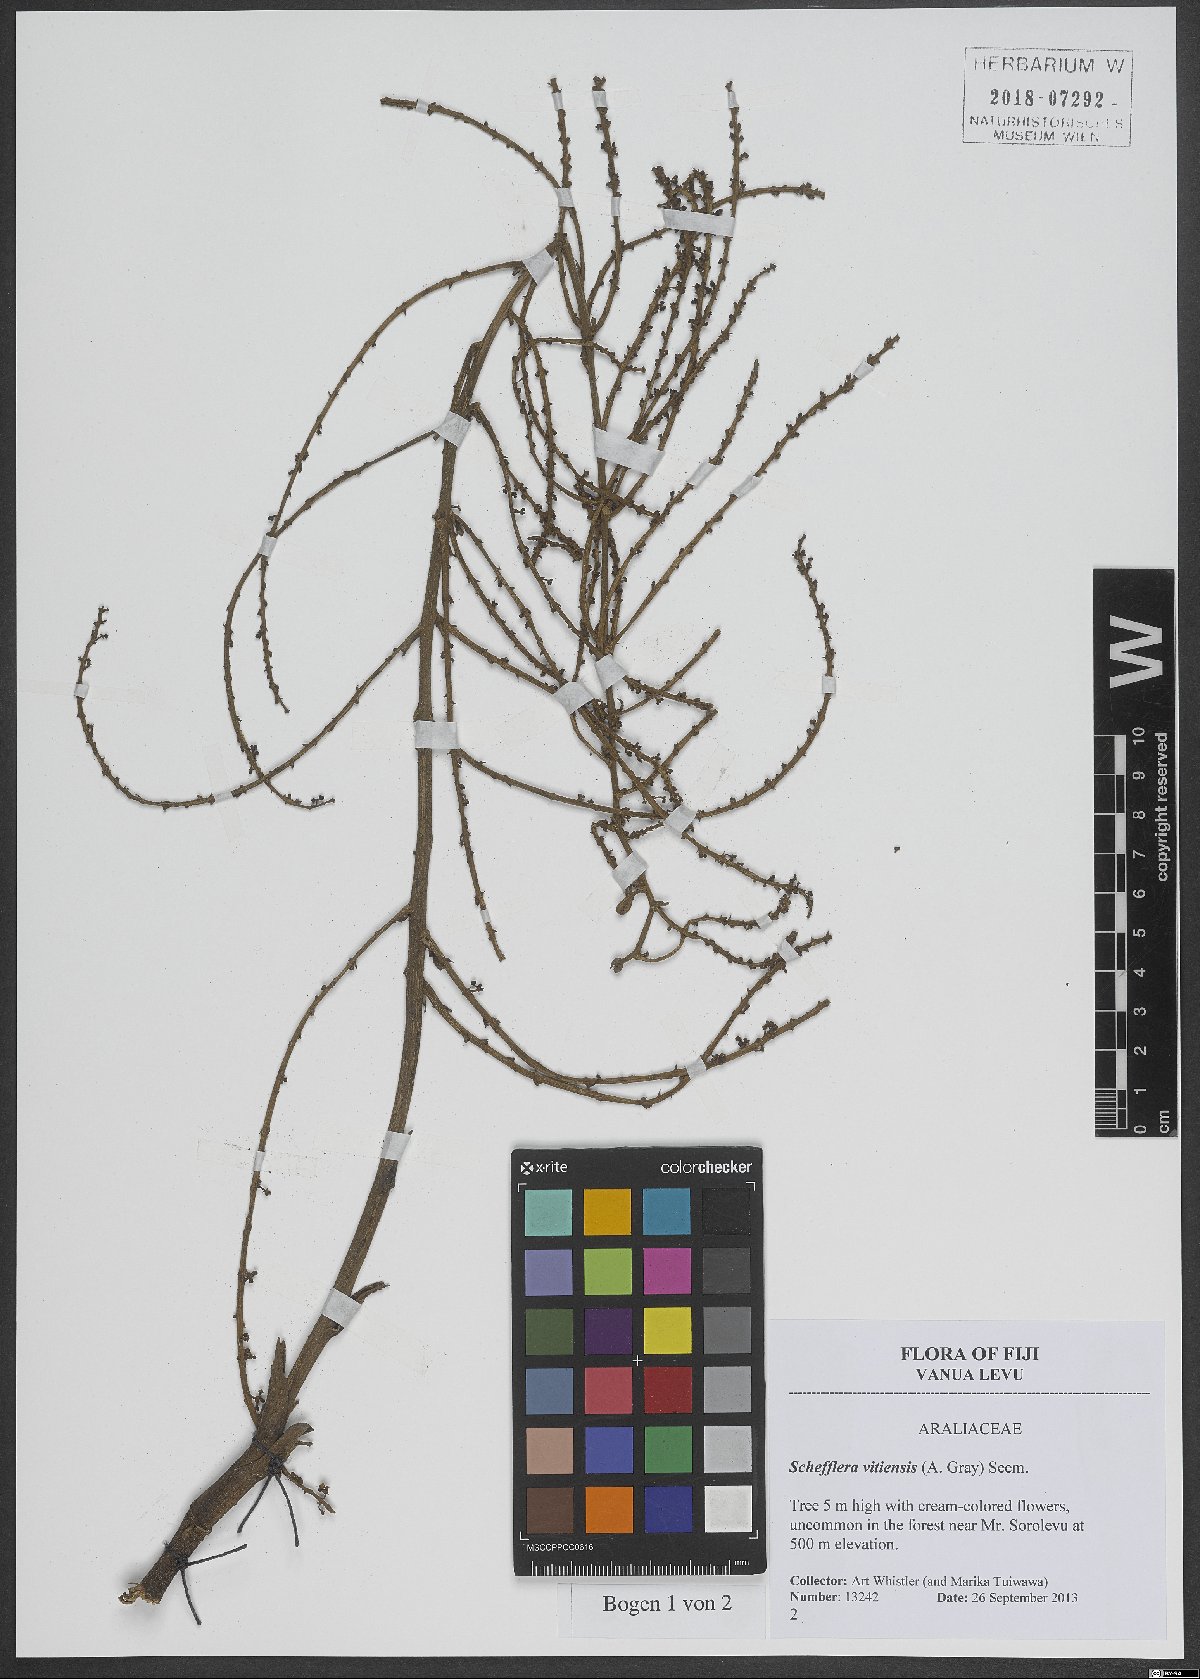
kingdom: Plantae
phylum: Tracheophyta
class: Magnoliopsida
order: Apiales
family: Araliaceae
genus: Schefflera
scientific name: Schefflera vitiensis
